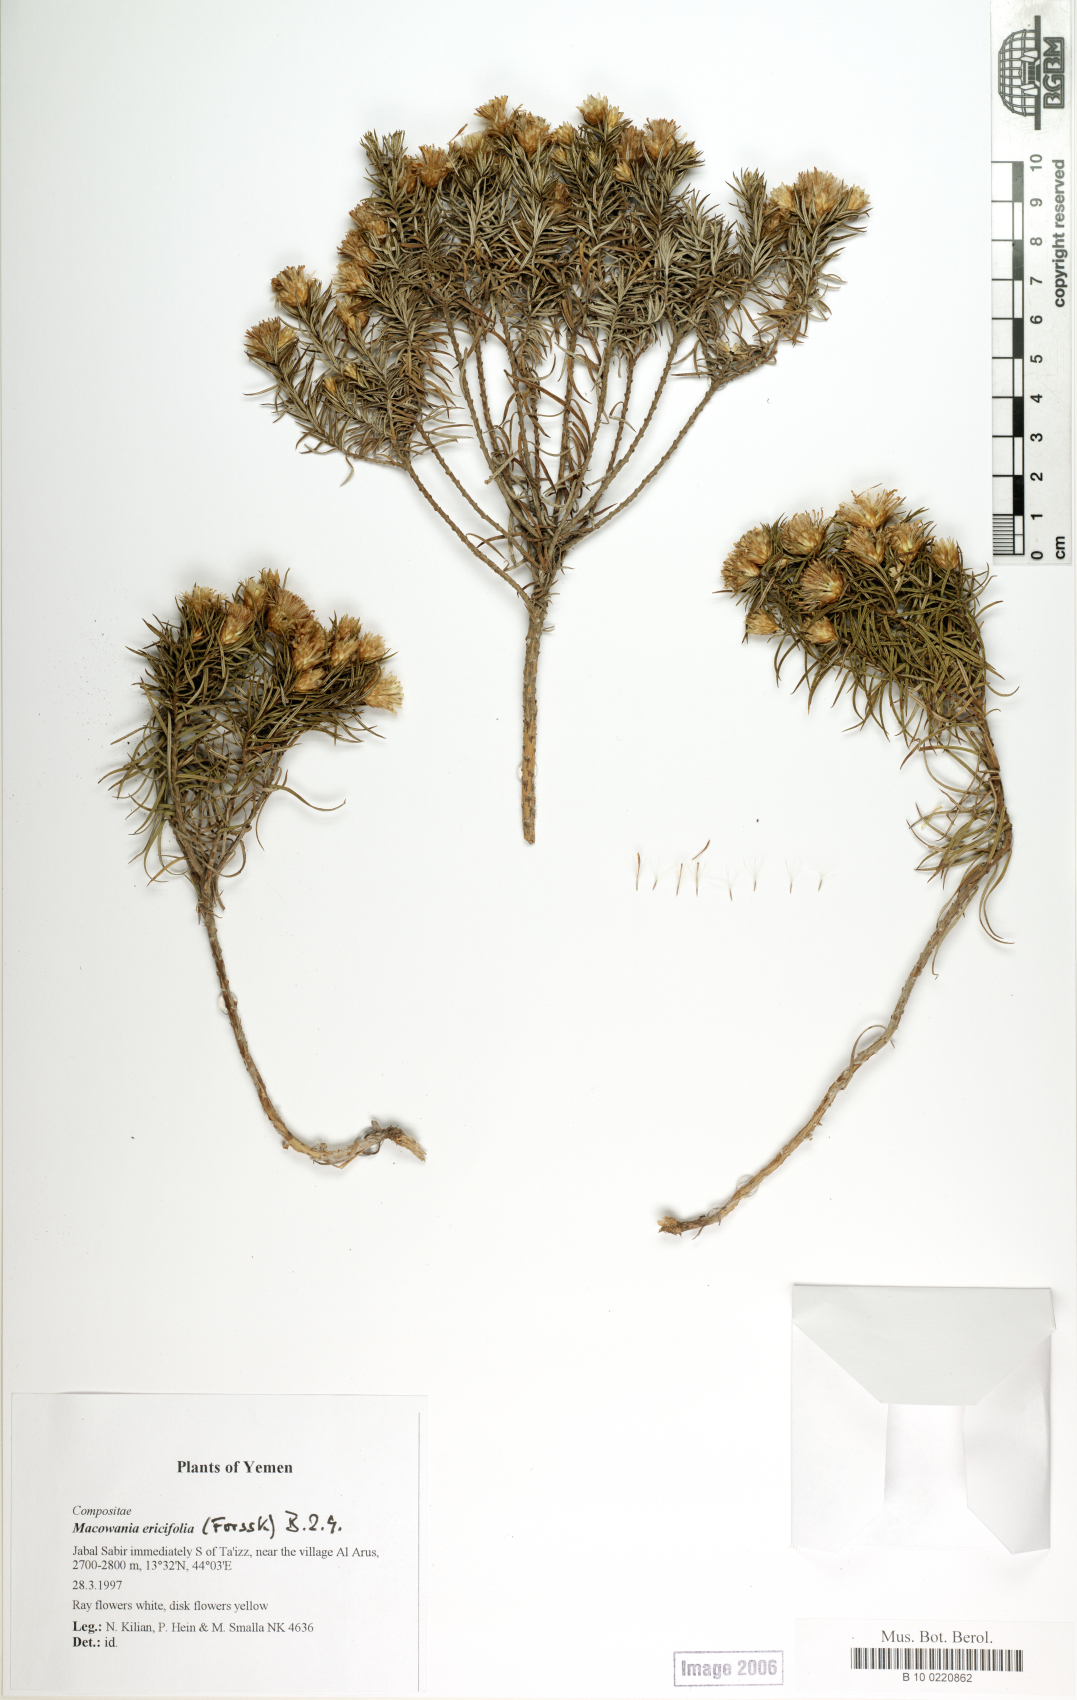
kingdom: Plantae
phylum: Tracheophyta
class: Magnoliopsida
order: Asterales
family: Asteraceae
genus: Arrowsmithia
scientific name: Arrowsmithia ericifolia
